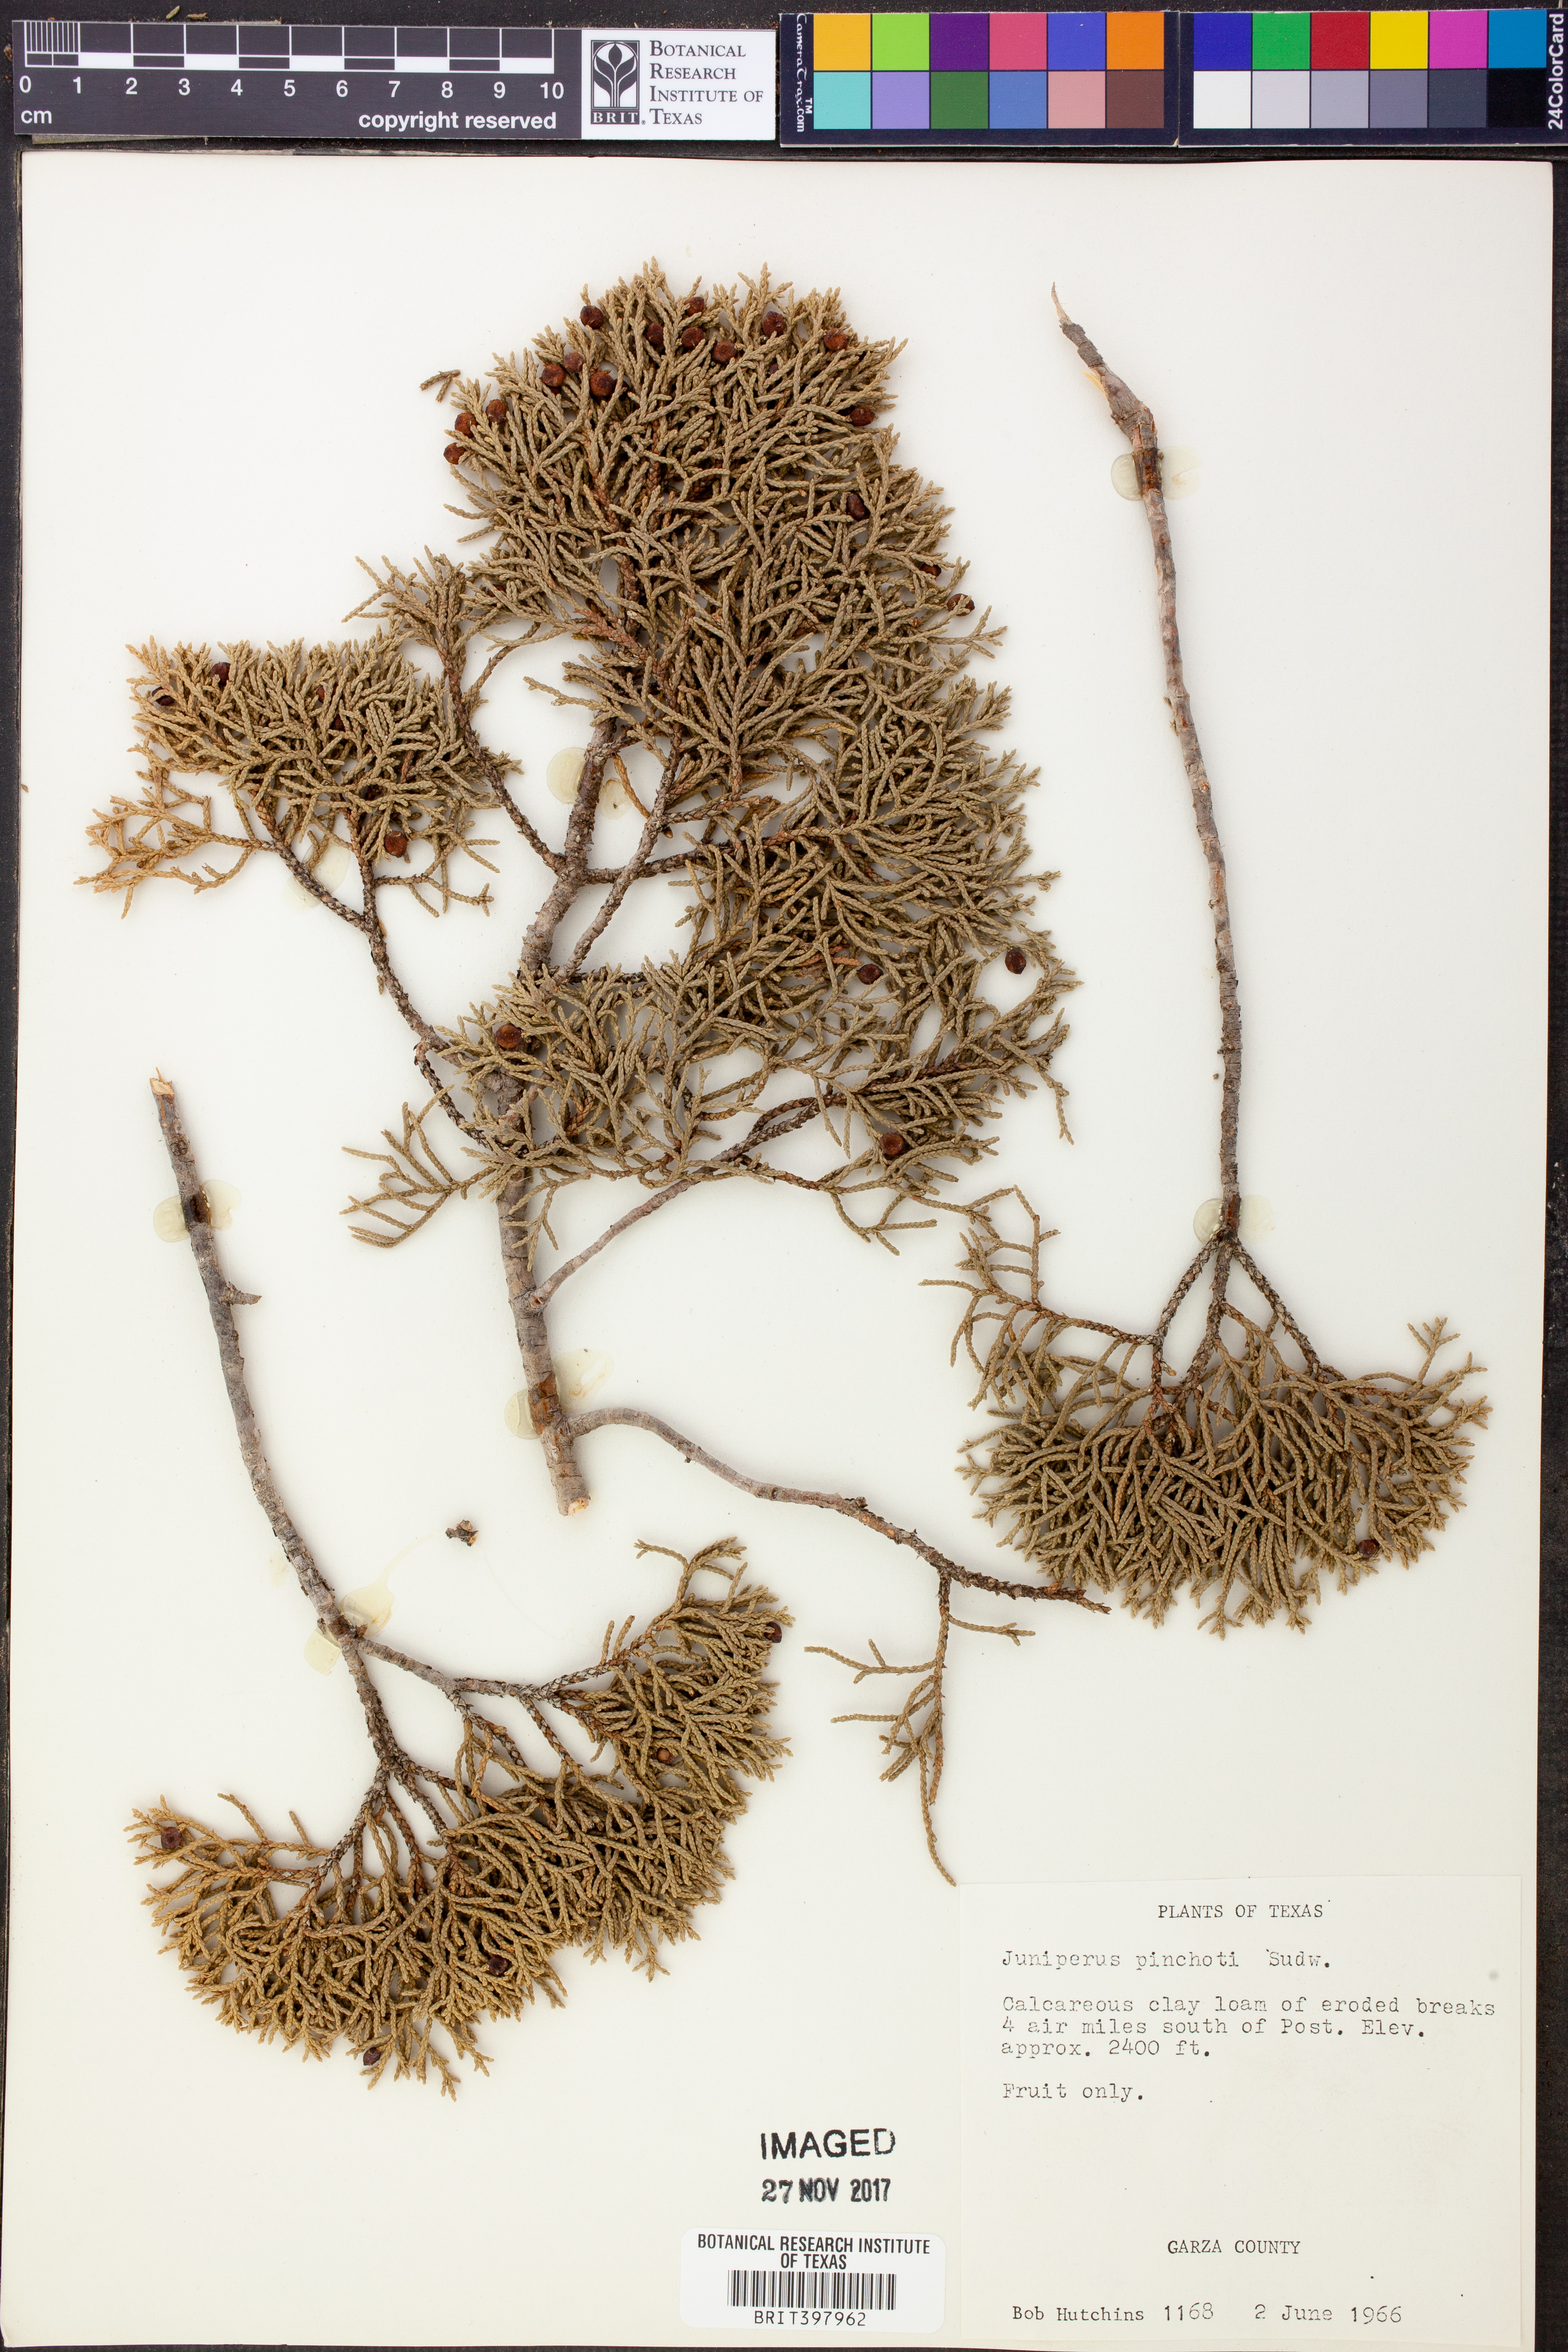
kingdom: Plantae
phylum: Tracheophyta
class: Pinopsida
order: Pinales
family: Cupressaceae
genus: Juniperus
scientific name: Juniperus pinchotii
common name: Pinchot juniper
